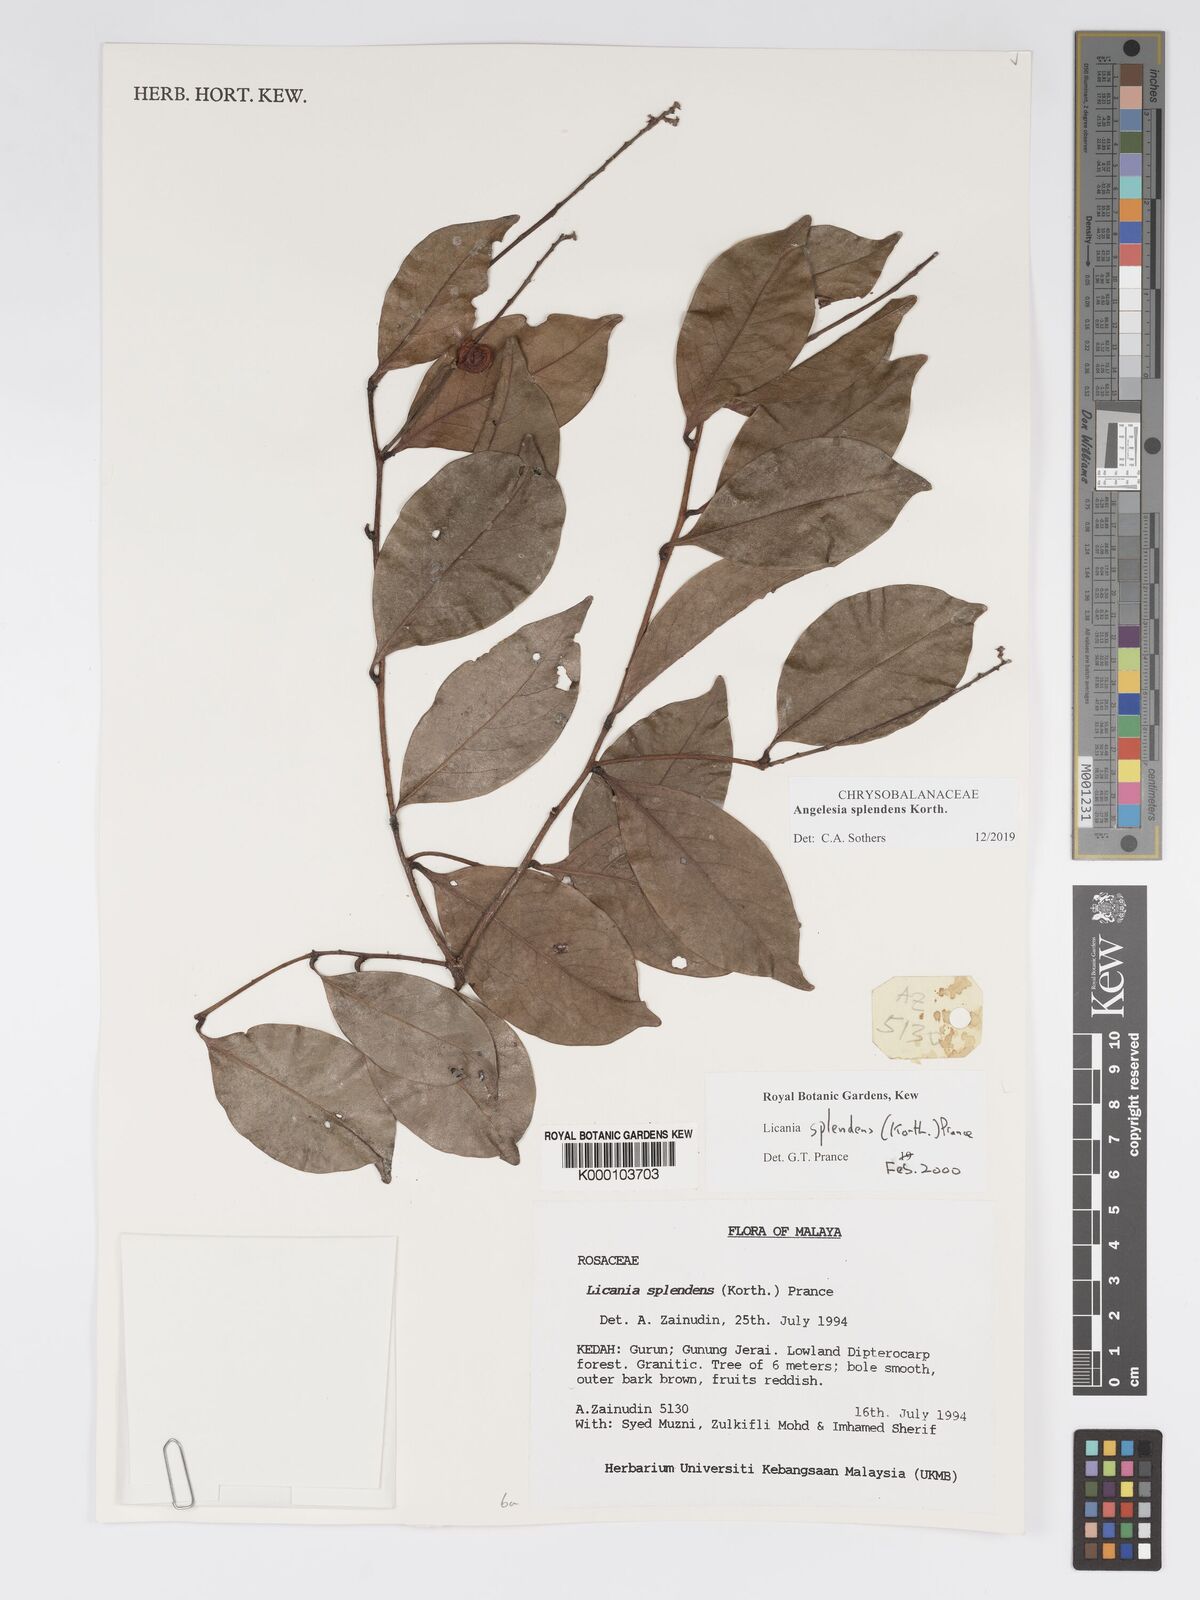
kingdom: Plantae
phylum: Tracheophyta
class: Magnoliopsida
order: Malpighiales
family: Chrysobalanaceae
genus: Angelesia
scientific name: Angelesia splendens
